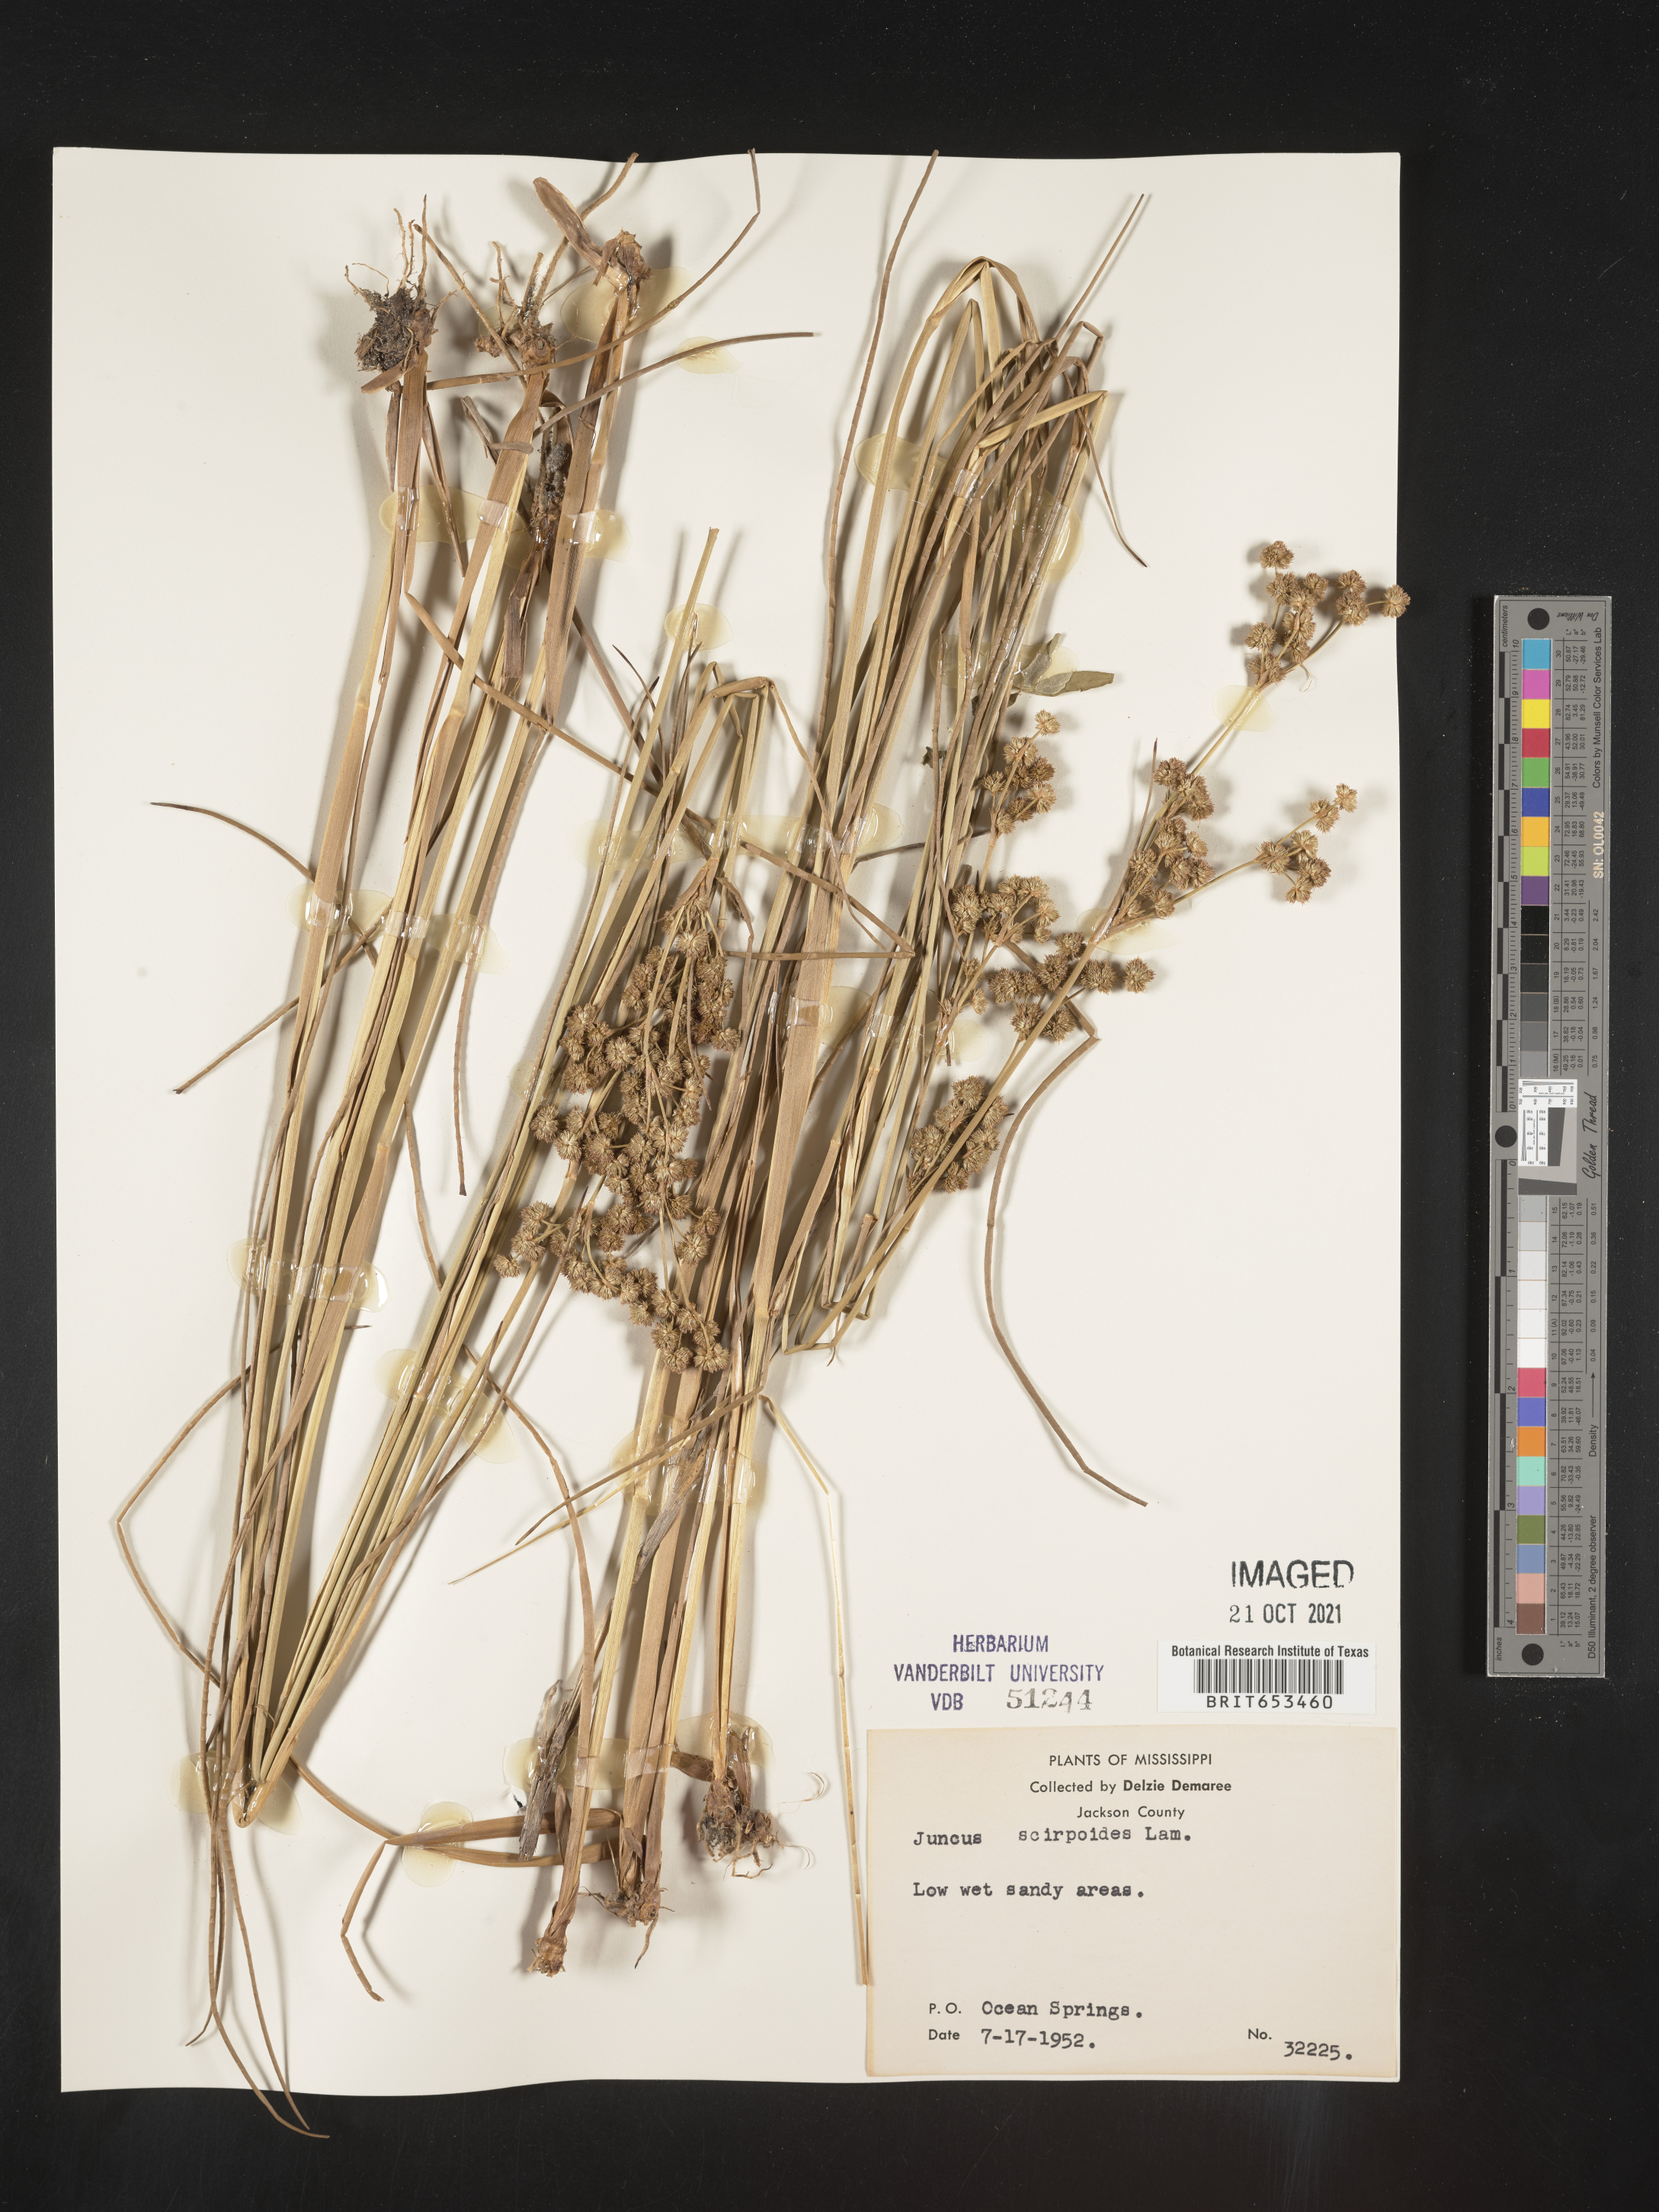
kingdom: Plantae
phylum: Tracheophyta
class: Liliopsida
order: Poales
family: Juncaceae
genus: Juncus
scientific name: Juncus scirpoides
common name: Needlepod rush
